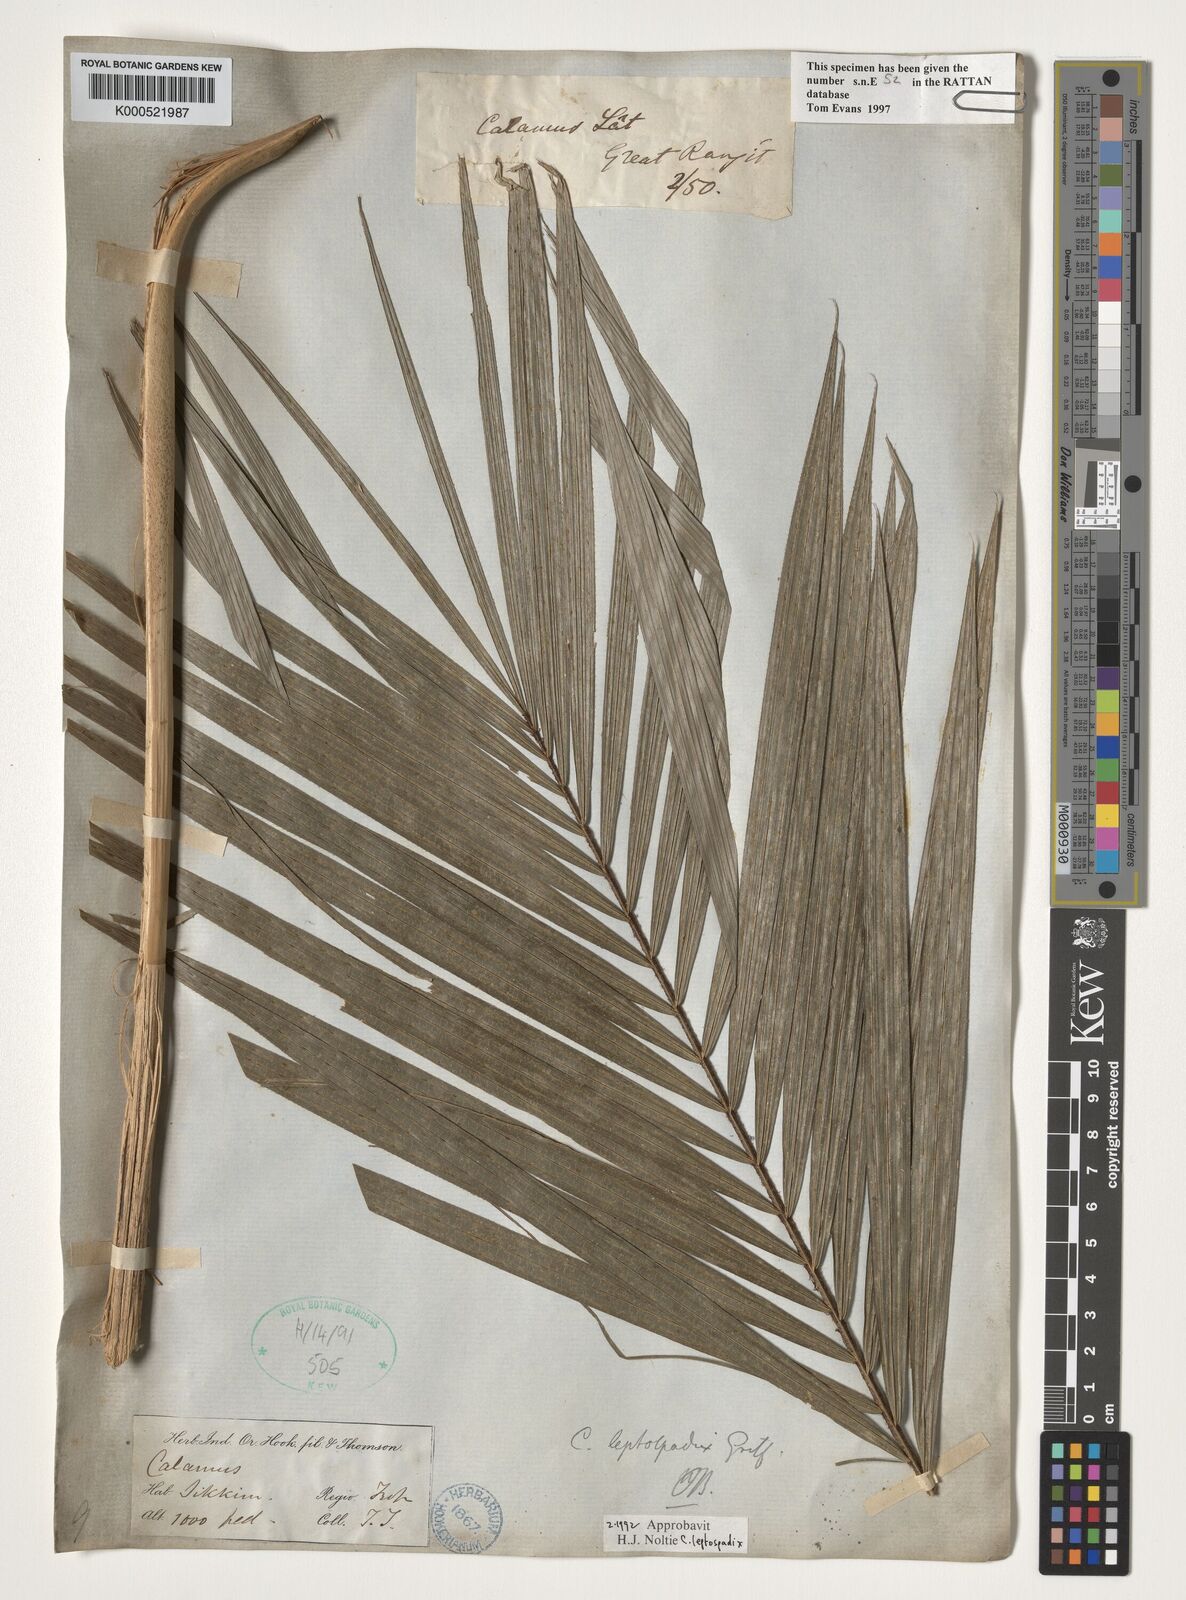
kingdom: Plantae
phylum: Tracheophyta
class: Liliopsida
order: Arecales
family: Arecaceae
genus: Calamus
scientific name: Calamus leptospadix
